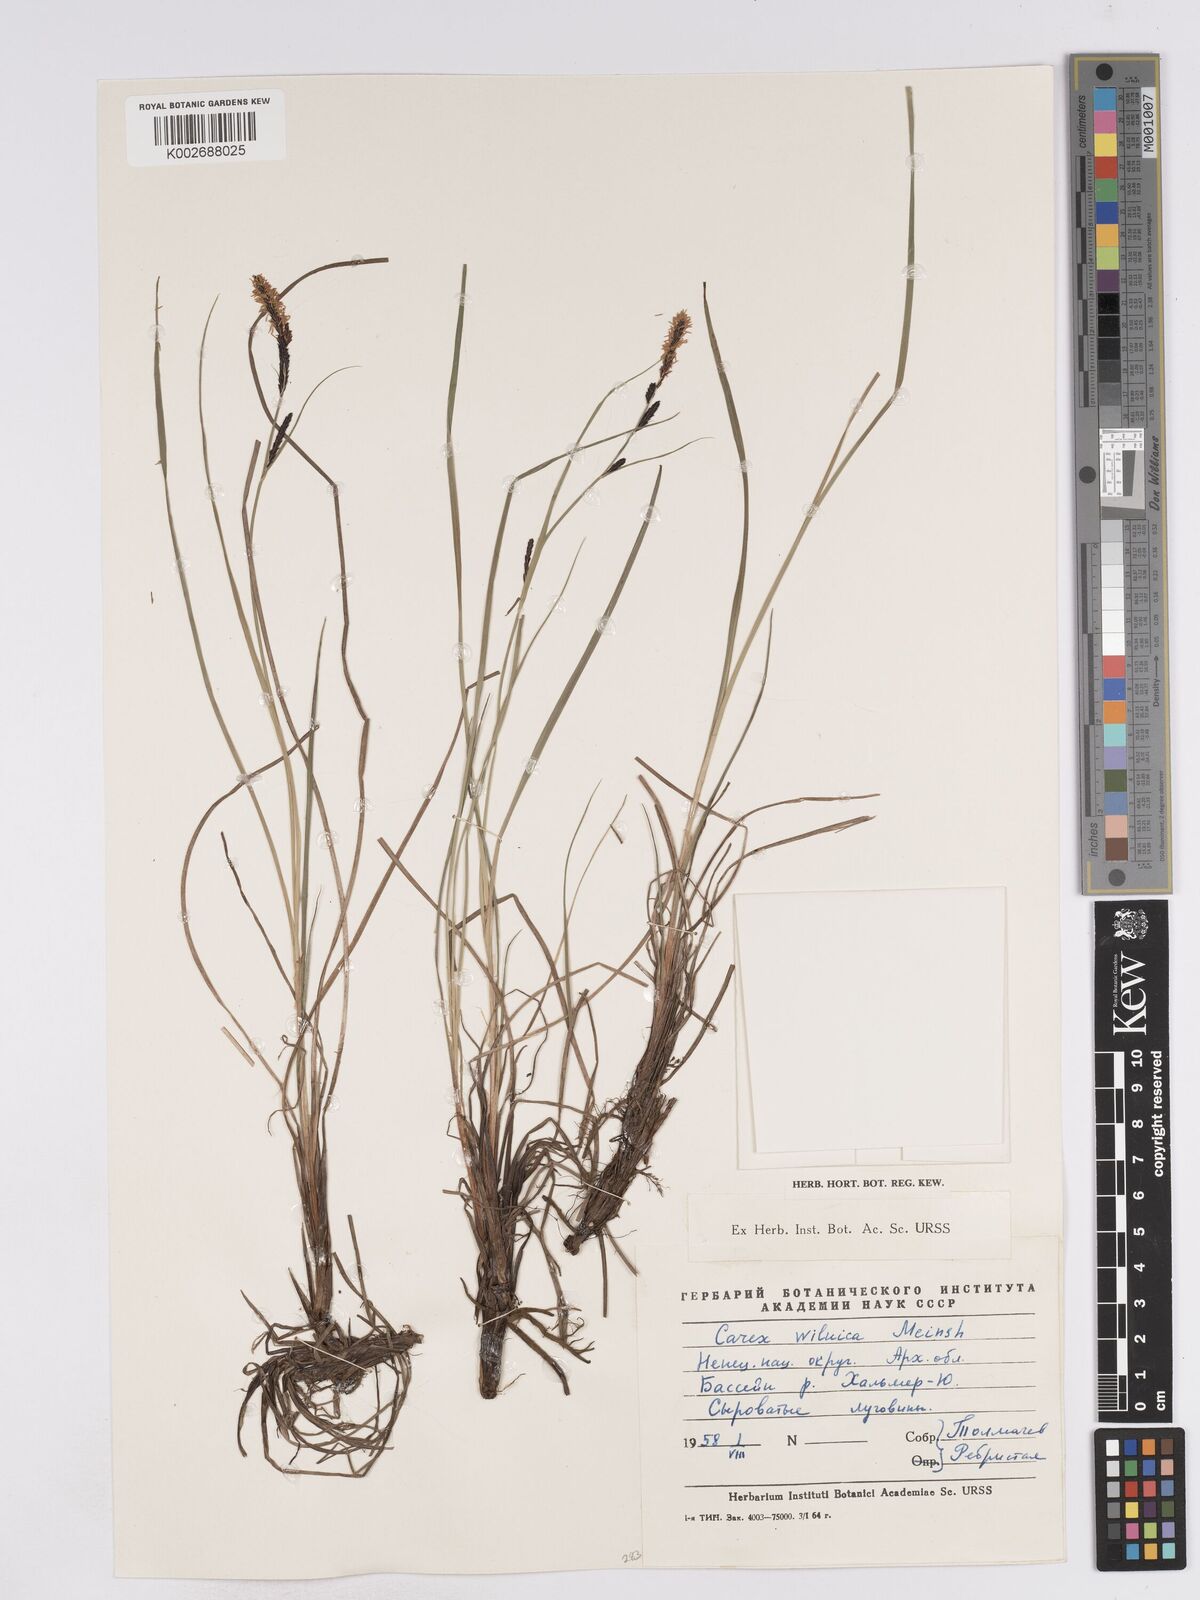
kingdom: Plantae
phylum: Tracheophyta
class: Liliopsida
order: Poales
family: Cyperaceae
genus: Carex
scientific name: Carex nigra
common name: Common sedge
